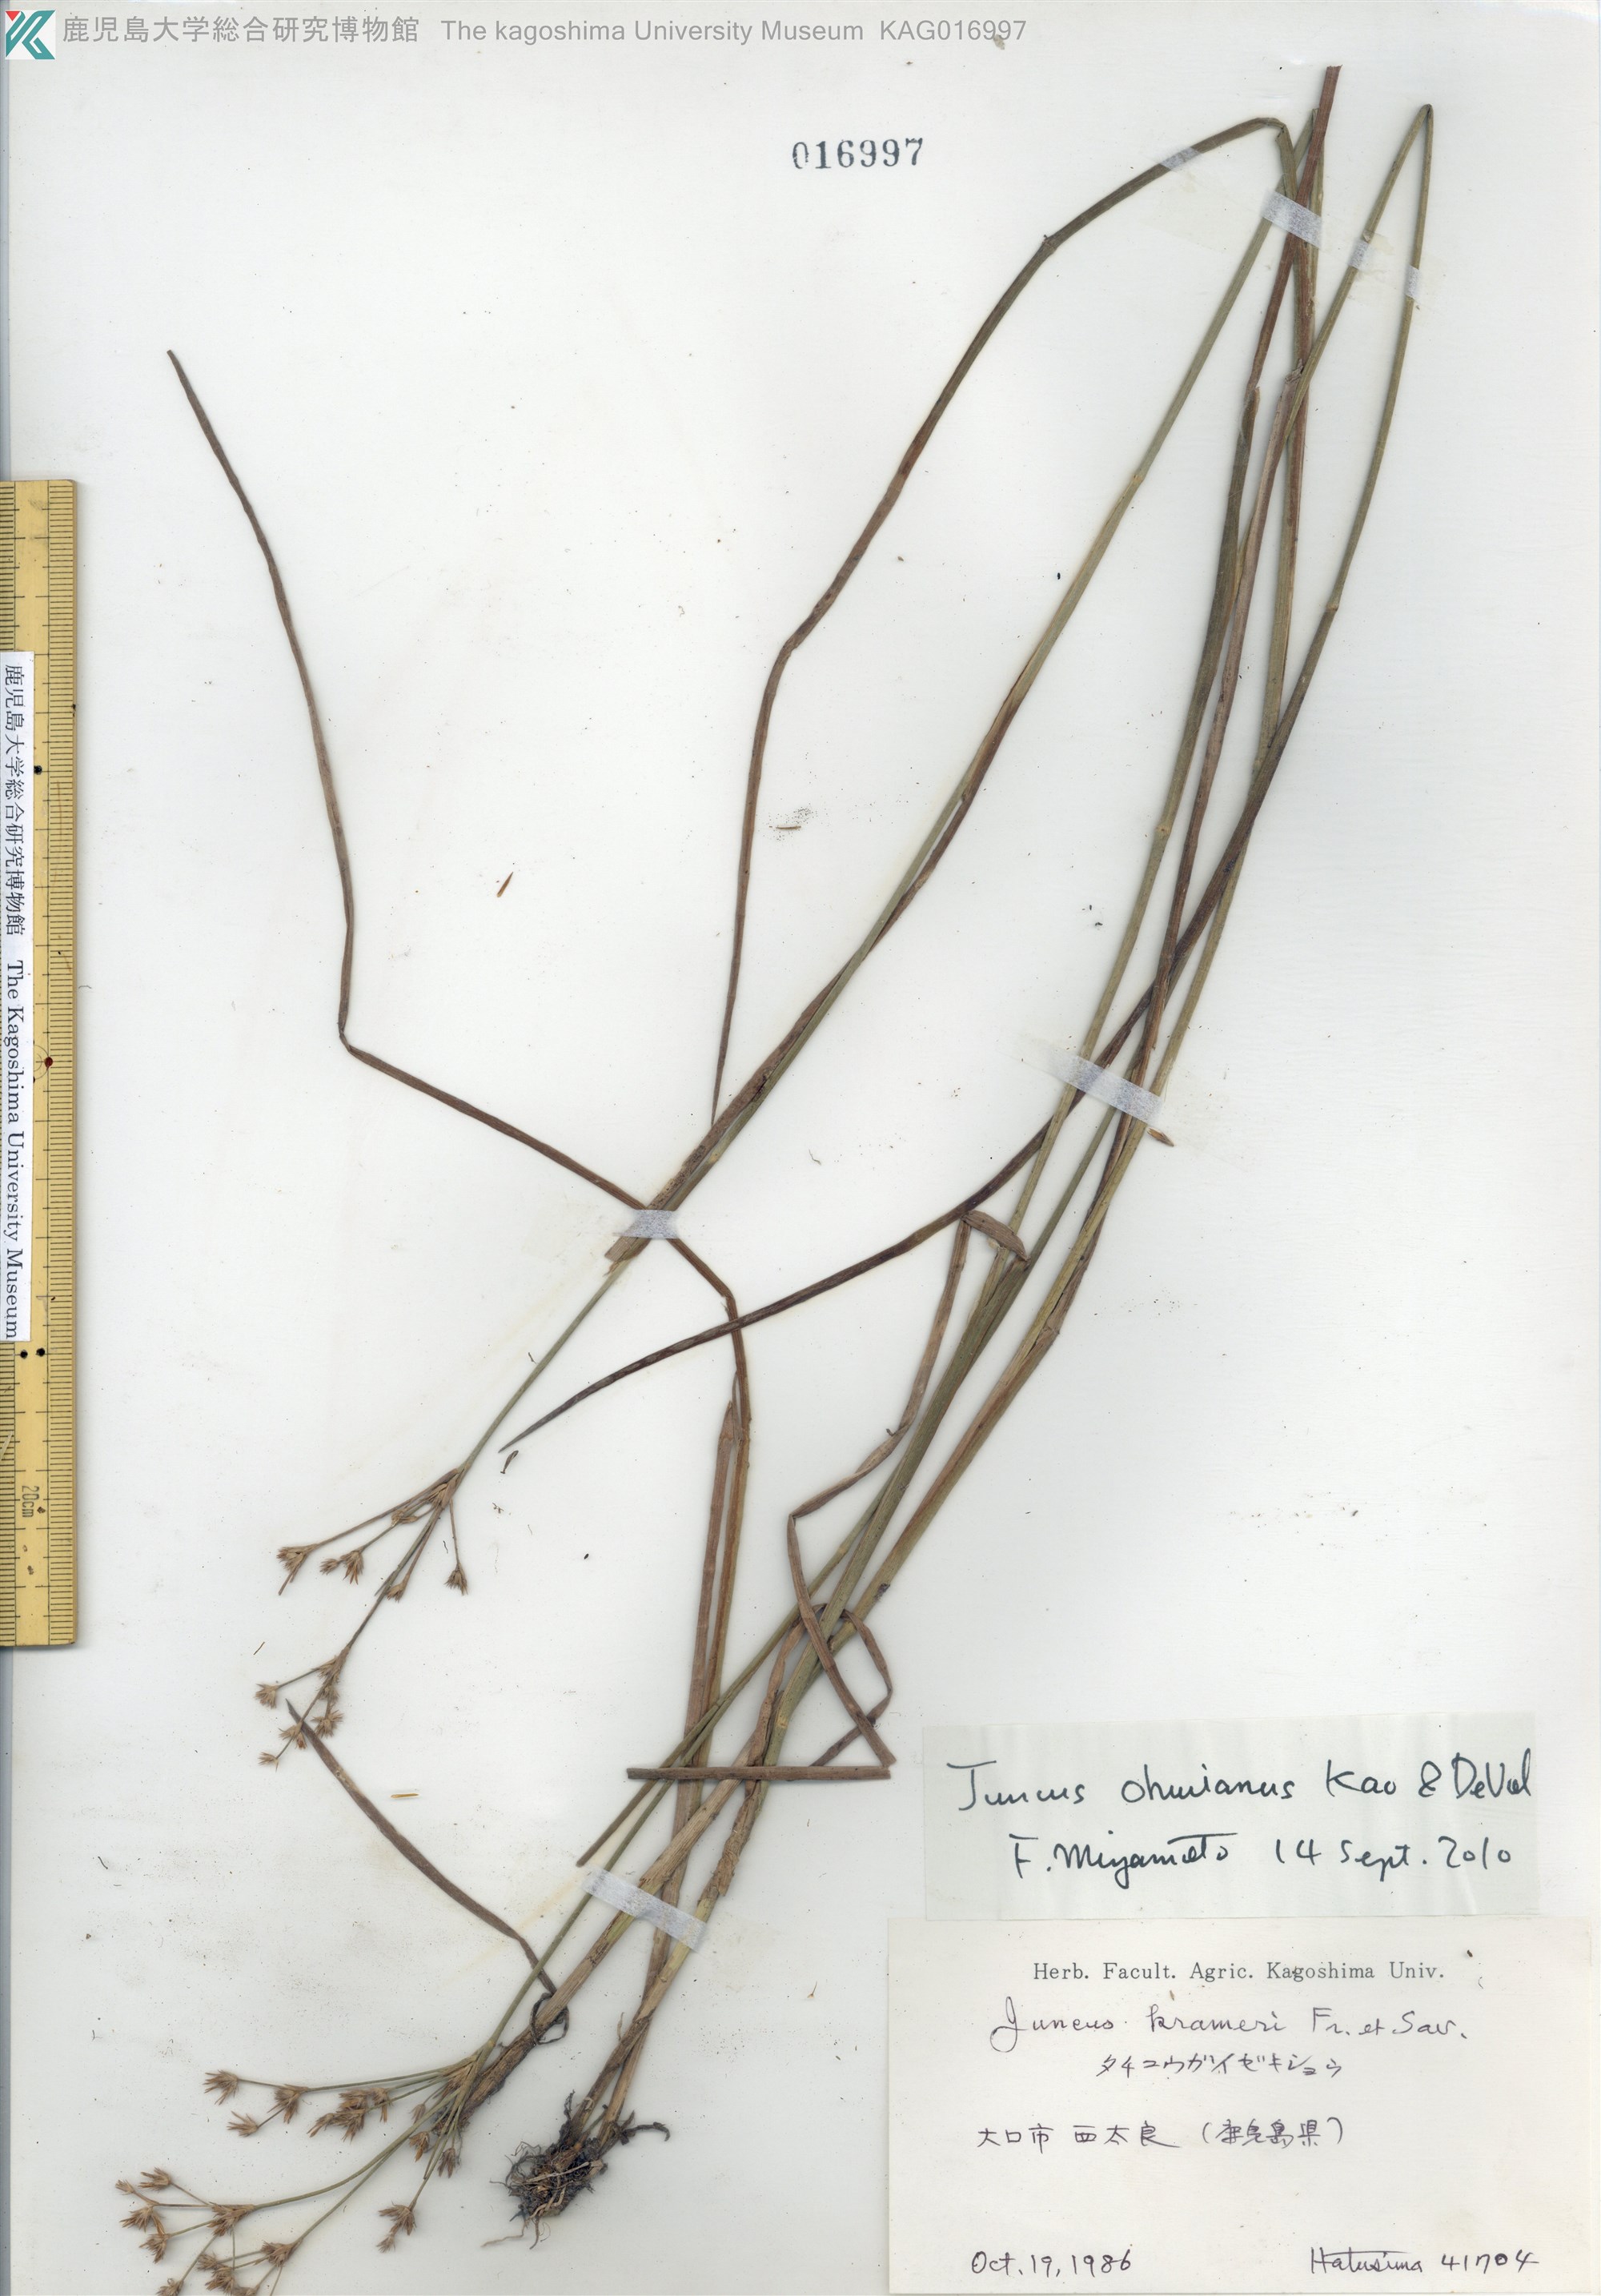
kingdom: Plantae
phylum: Tracheophyta
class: Liliopsida
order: Poales
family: Juncaceae
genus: Juncus
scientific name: Juncus wallichianus
